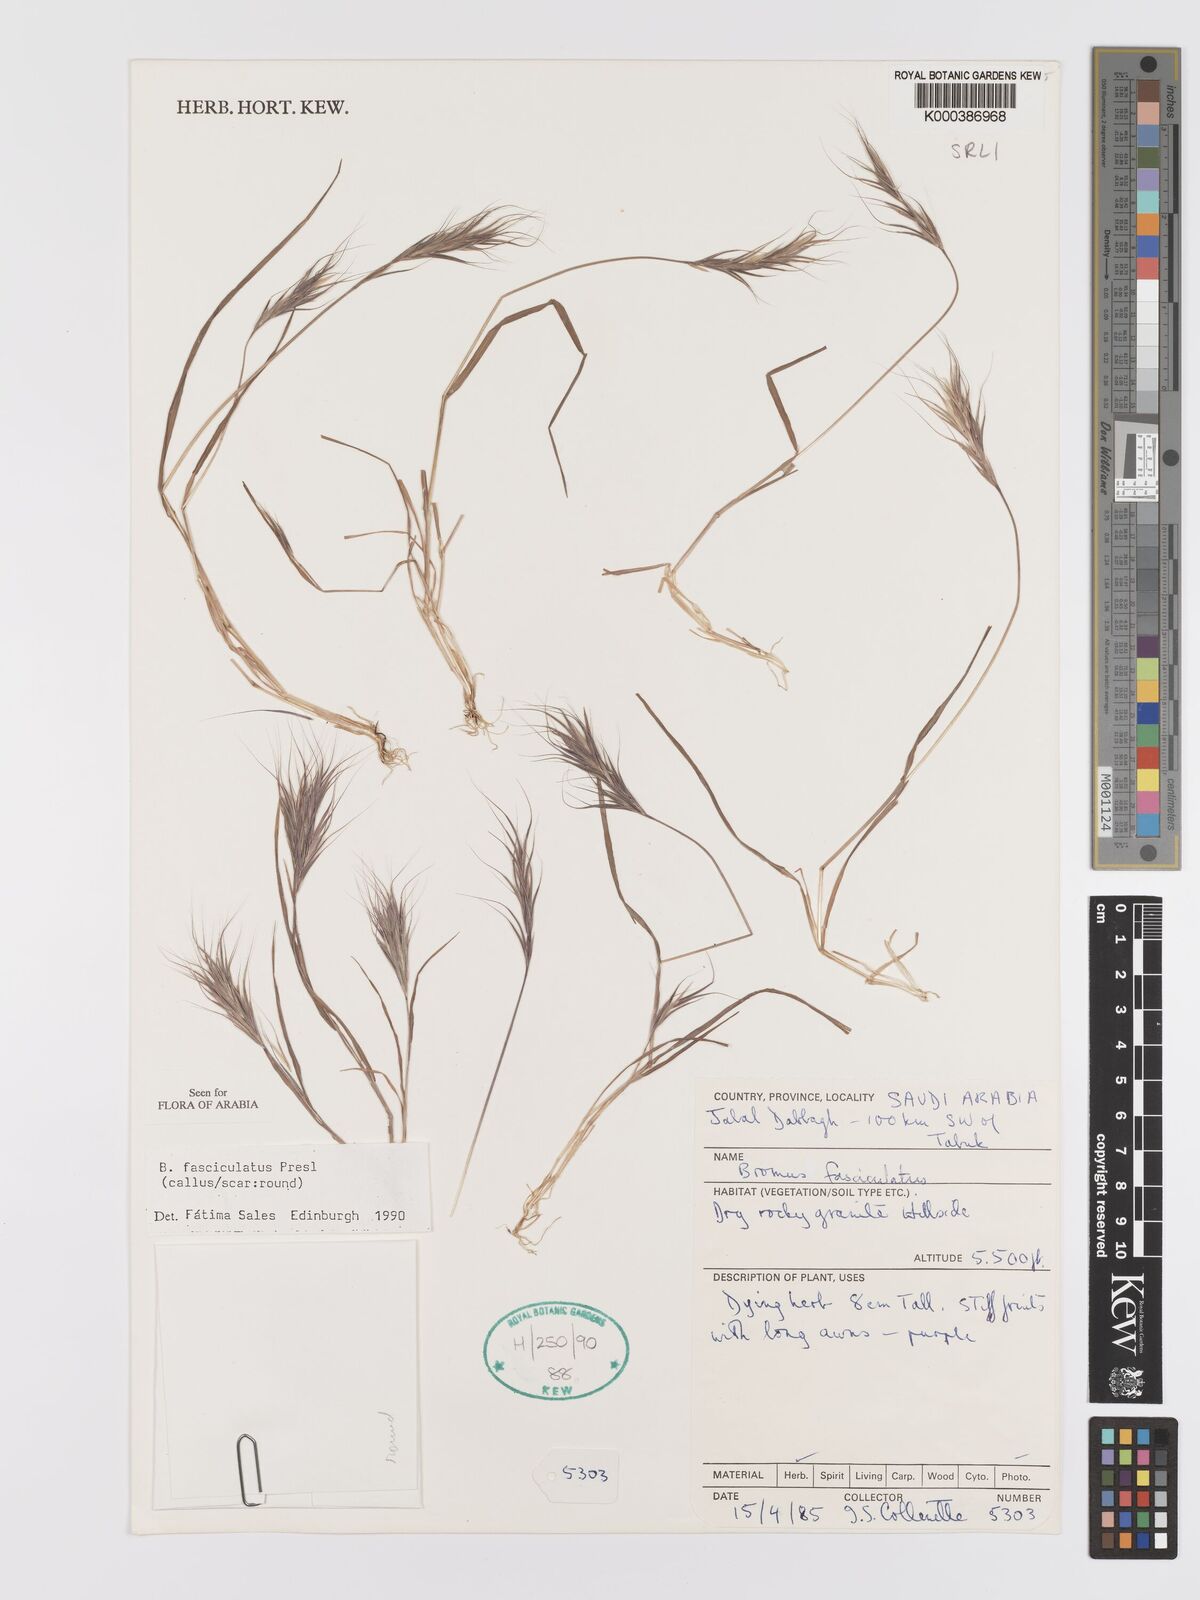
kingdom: Plantae
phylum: Tracheophyta
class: Liliopsida
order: Poales
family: Poaceae
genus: Bromus
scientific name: Bromus fasciculatus
